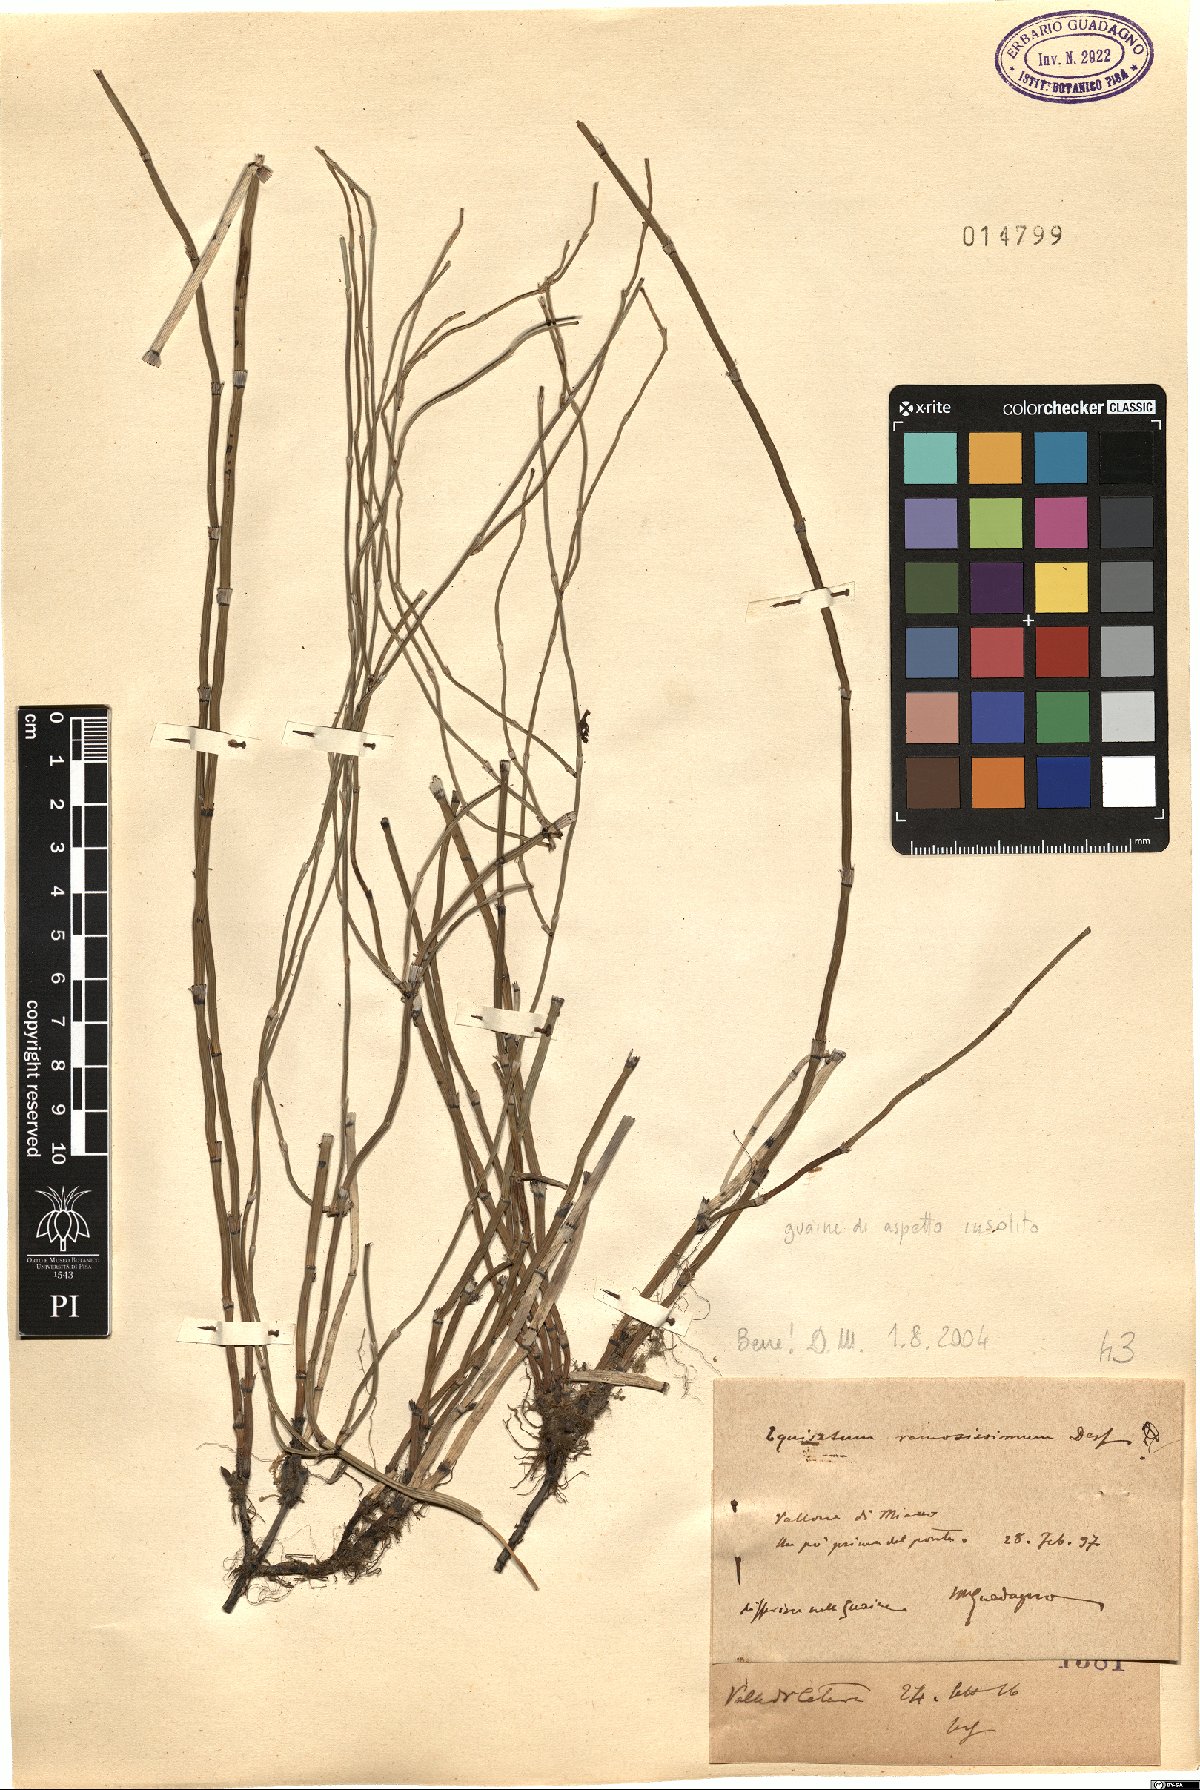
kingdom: Plantae
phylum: Tracheophyta
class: Polypodiopsida
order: Equisetales
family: Equisetaceae
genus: Equisetum
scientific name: Equisetum ramosissimum
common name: Branched horsetail
